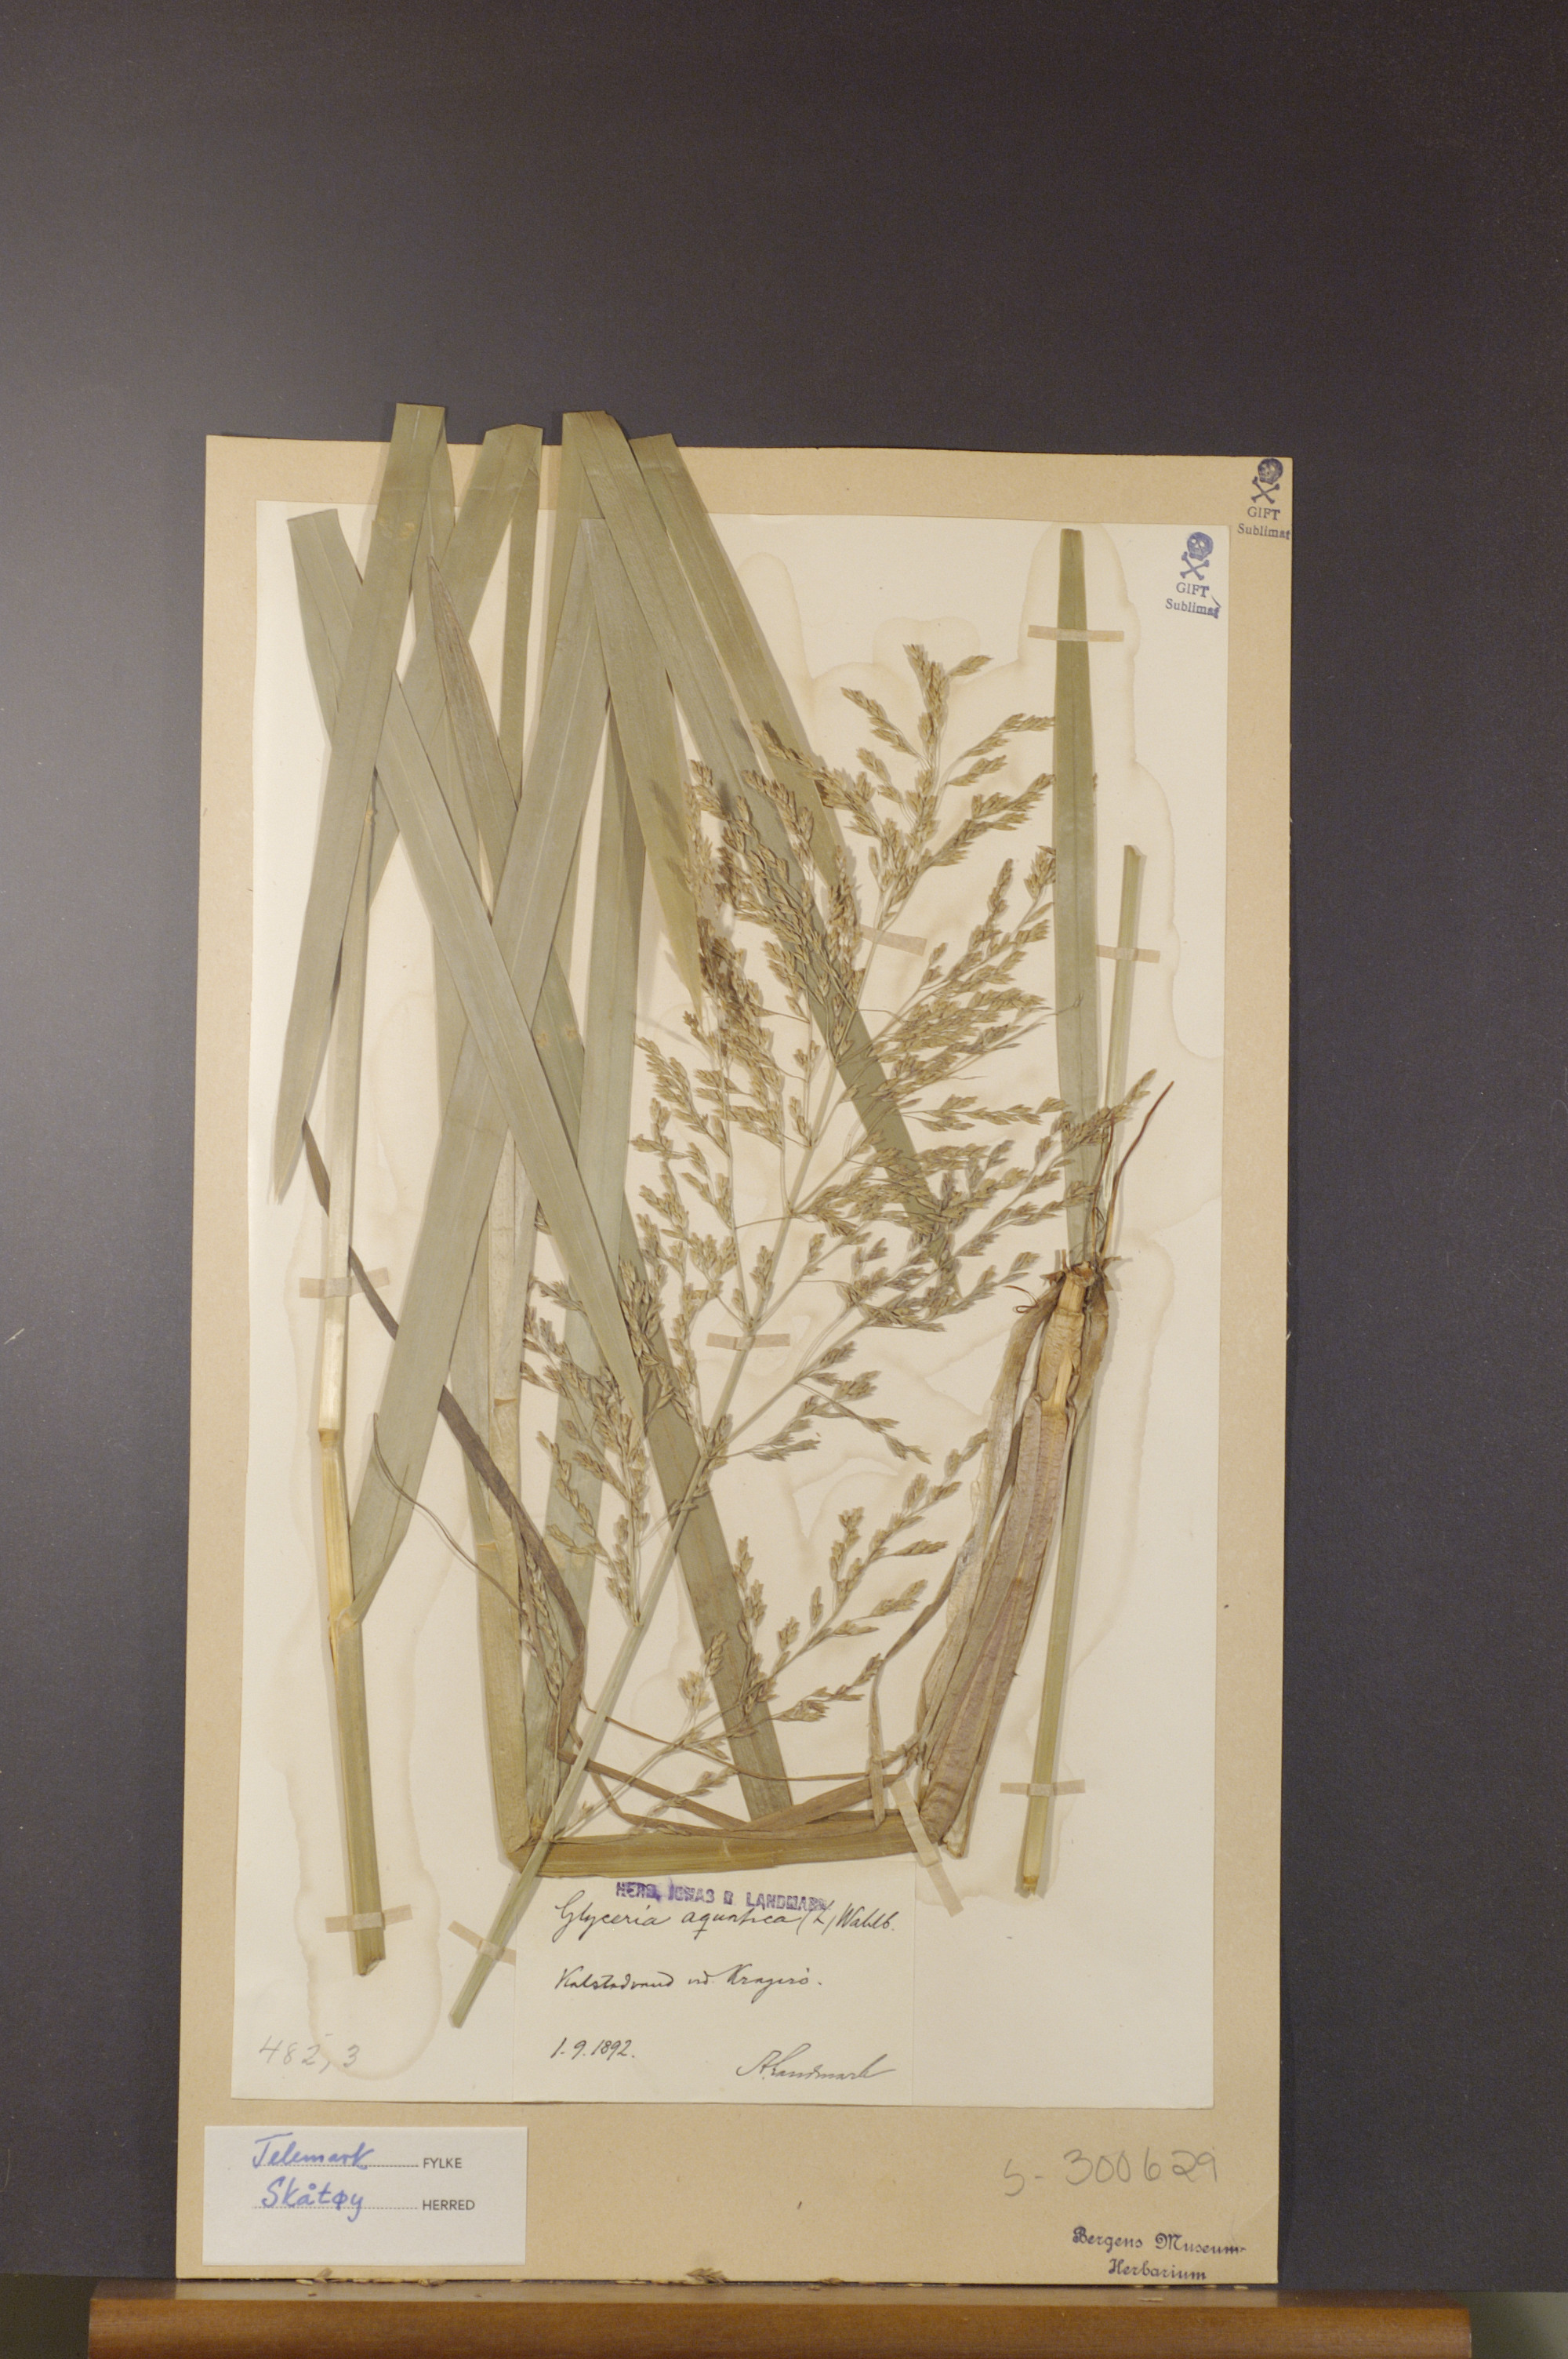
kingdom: Plantae
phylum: Tracheophyta
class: Liliopsida
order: Poales
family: Poaceae
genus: Glyceria
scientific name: Glyceria maxima
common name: Reed mannagrass
